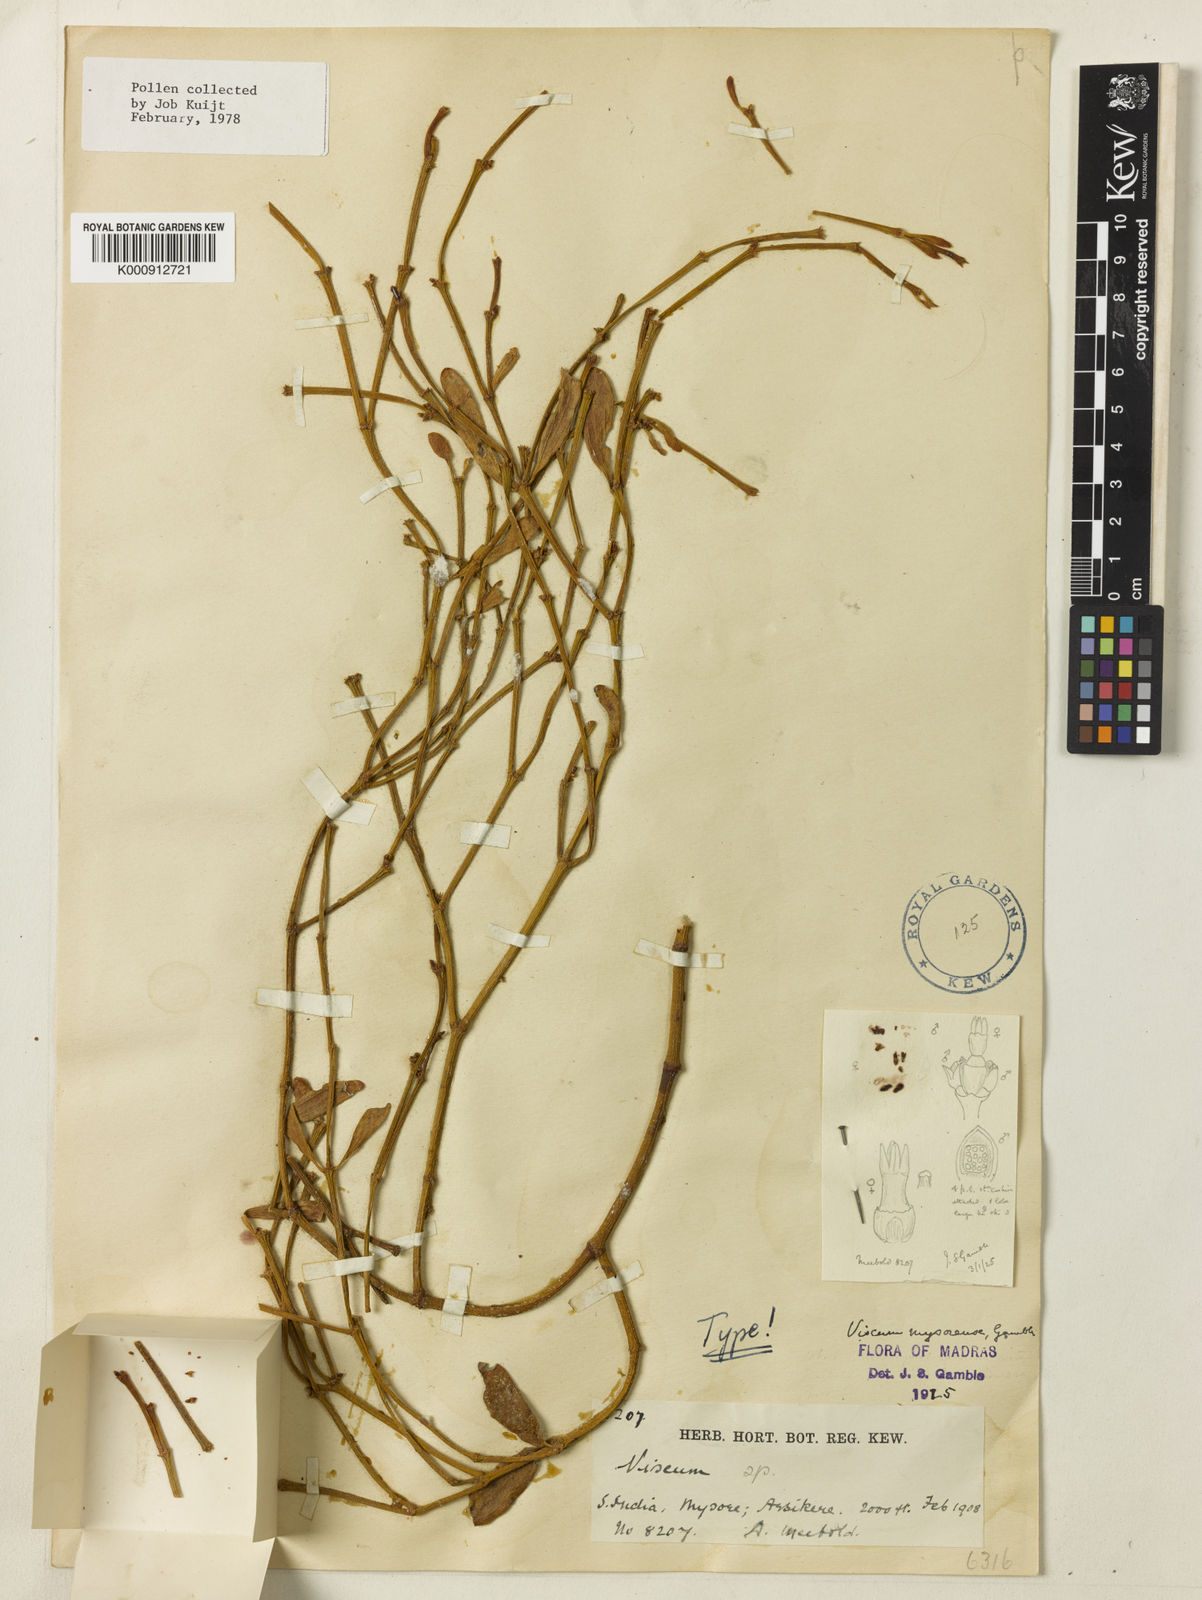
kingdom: Plantae
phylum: Tracheophyta
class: Magnoliopsida
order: Santalales
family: Viscaceae
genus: Viscum
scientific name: Viscum mysorense
